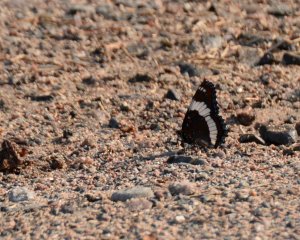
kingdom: Animalia
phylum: Arthropoda
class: Insecta
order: Lepidoptera
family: Nymphalidae
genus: Limenitis
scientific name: Limenitis arthemis
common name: Red-spotted Admiral
